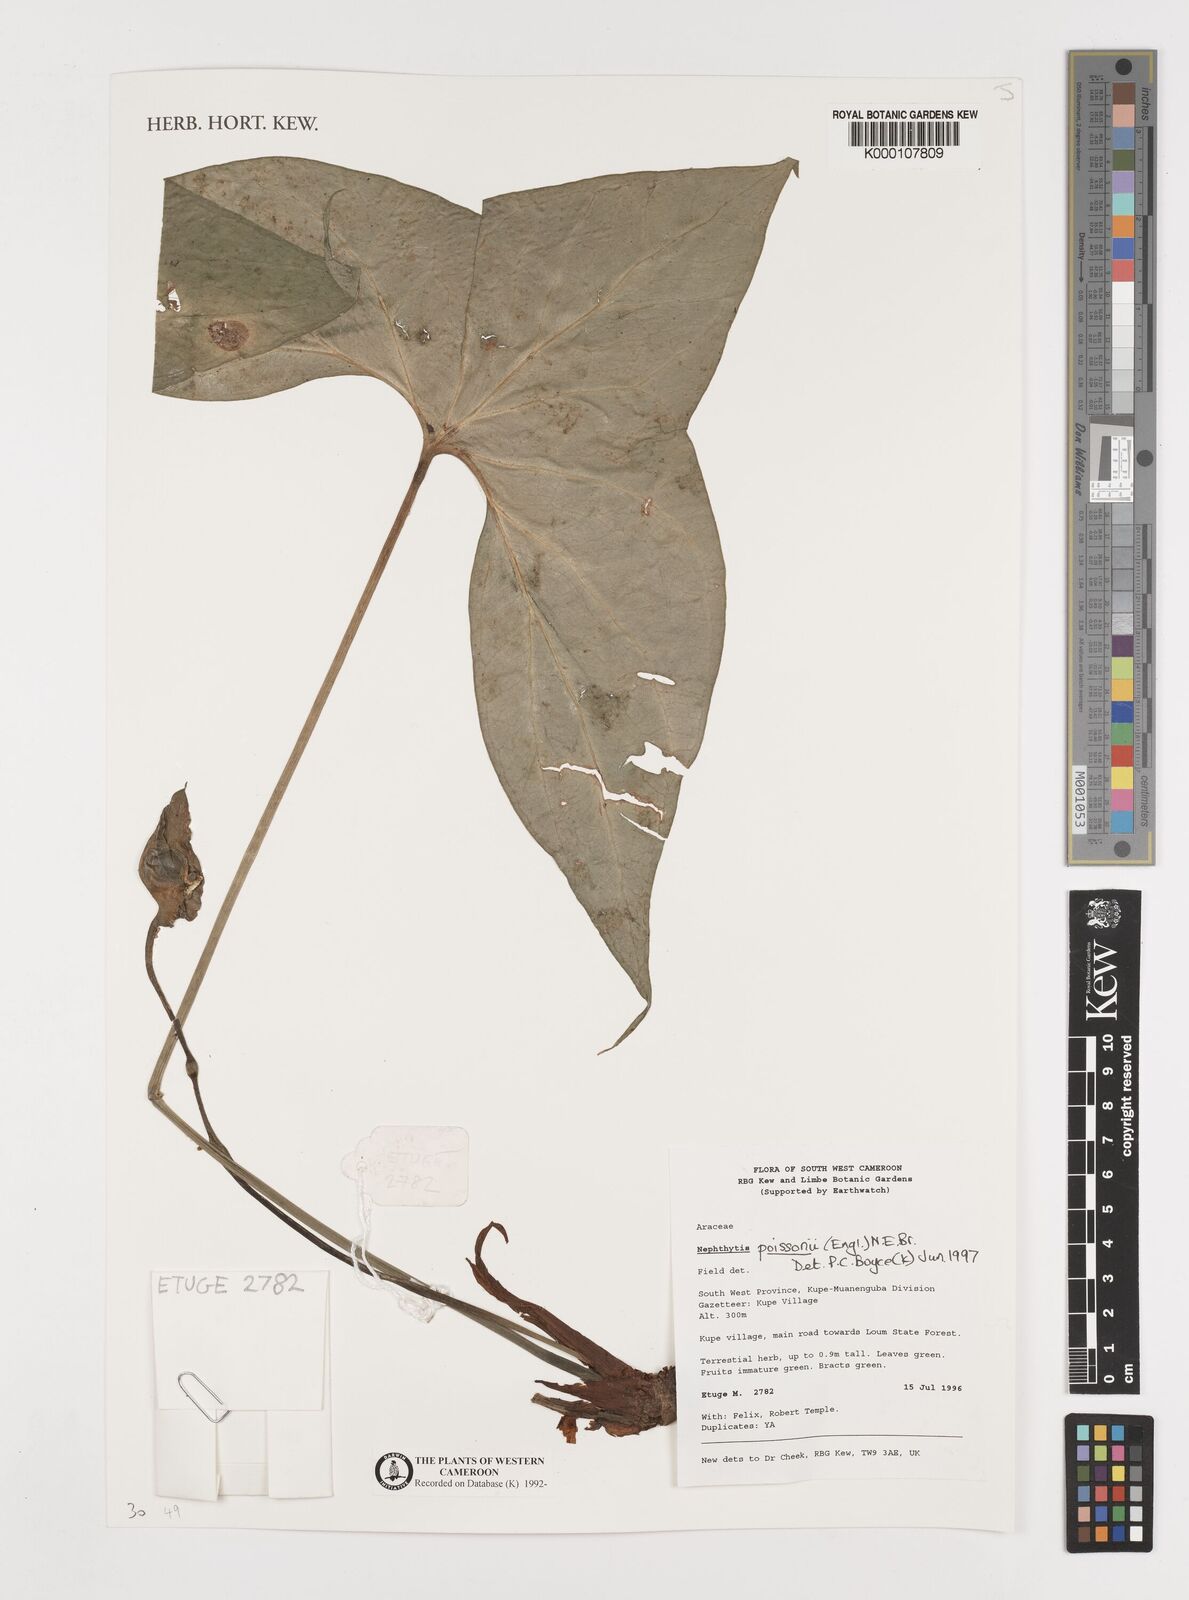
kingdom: Plantae
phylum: Tracheophyta
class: Liliopsida
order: Alismatales
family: Araceae
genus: Nephthytis
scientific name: Nephthytis poissonii
